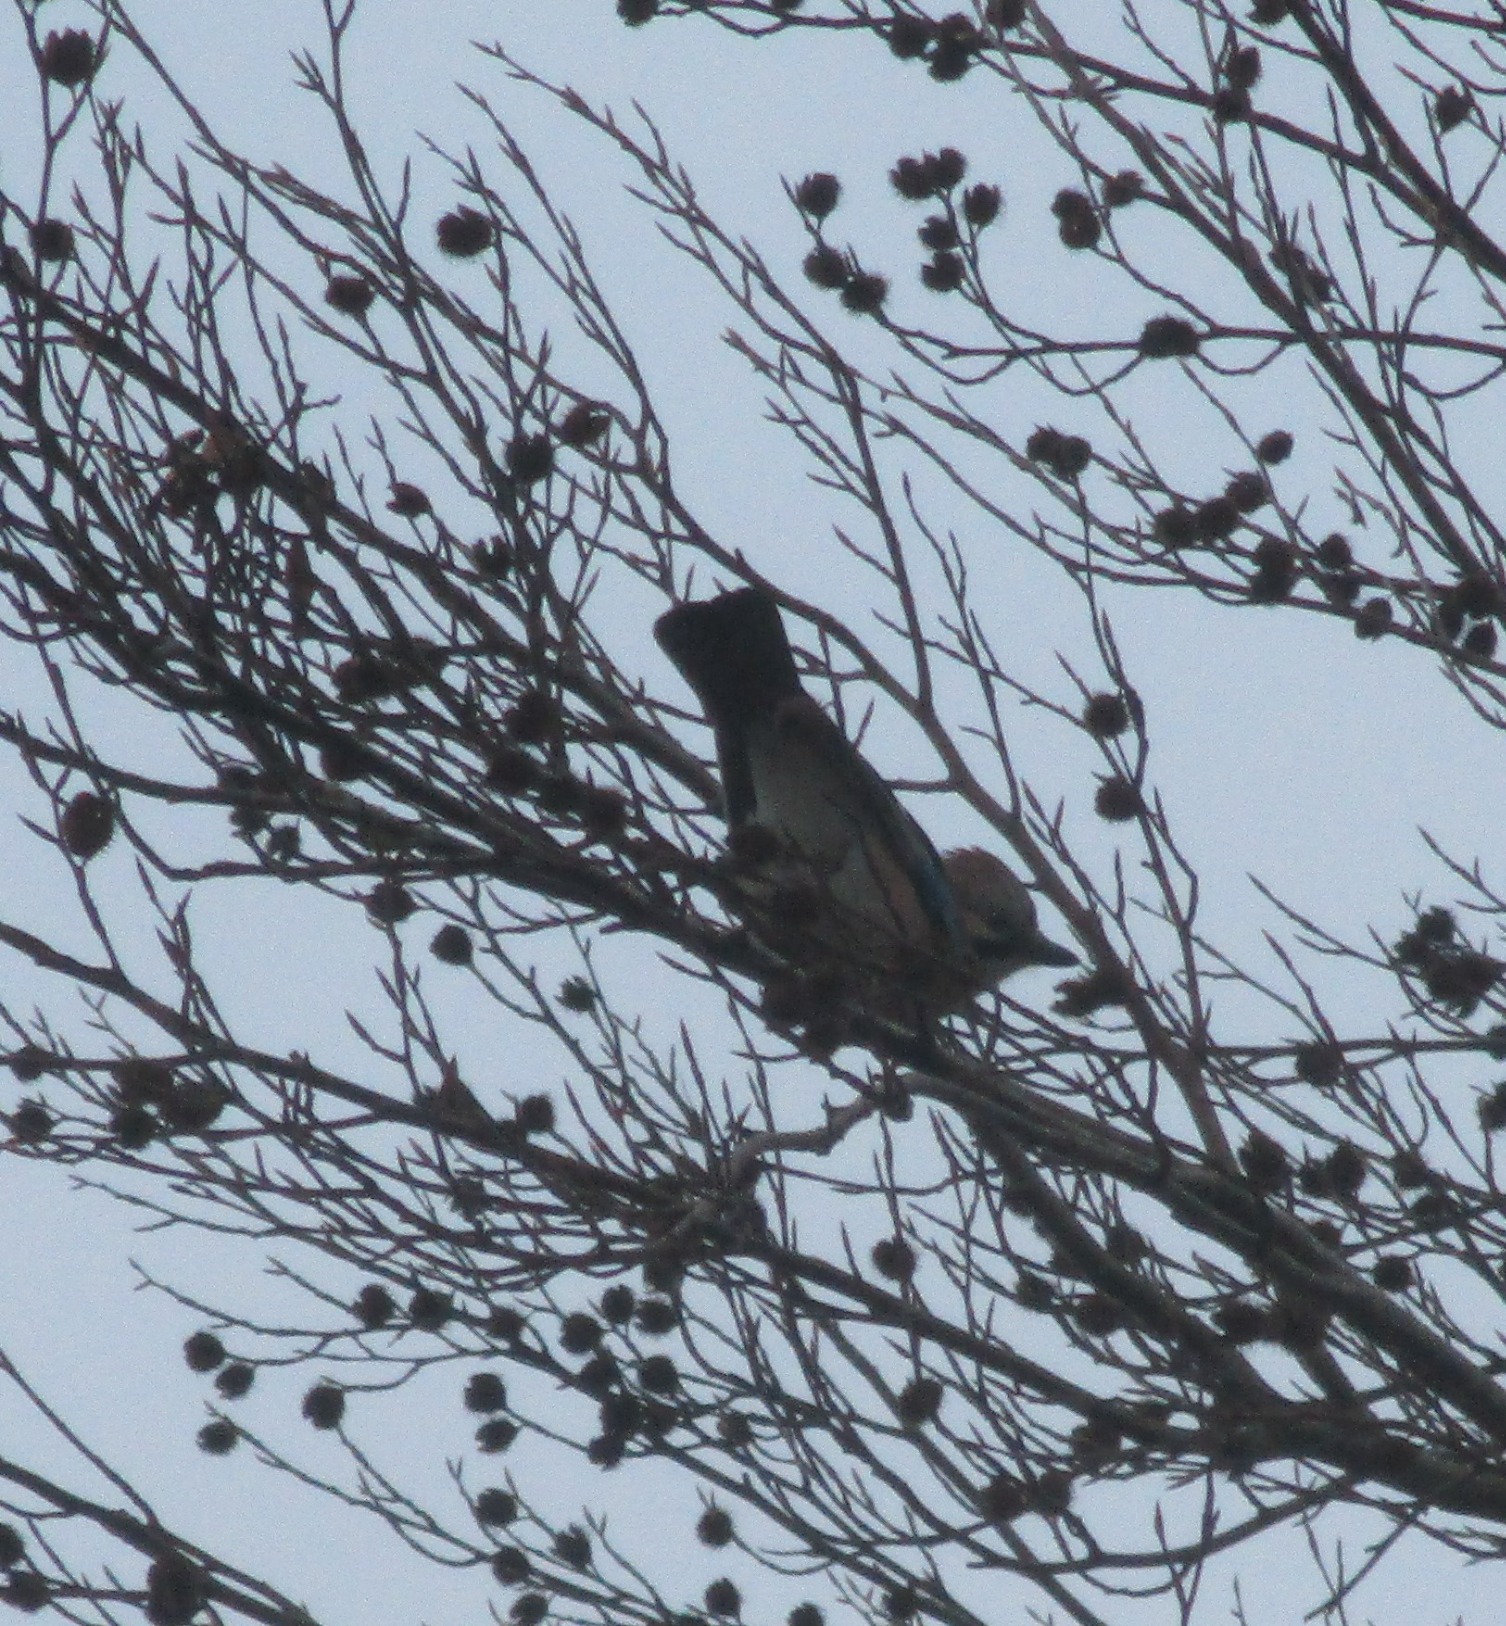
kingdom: Animalia
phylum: Chordata
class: Aves
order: Passeriformes
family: Corvidae
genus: Garrulus
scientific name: Garrulus glandarius
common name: Skovskade
